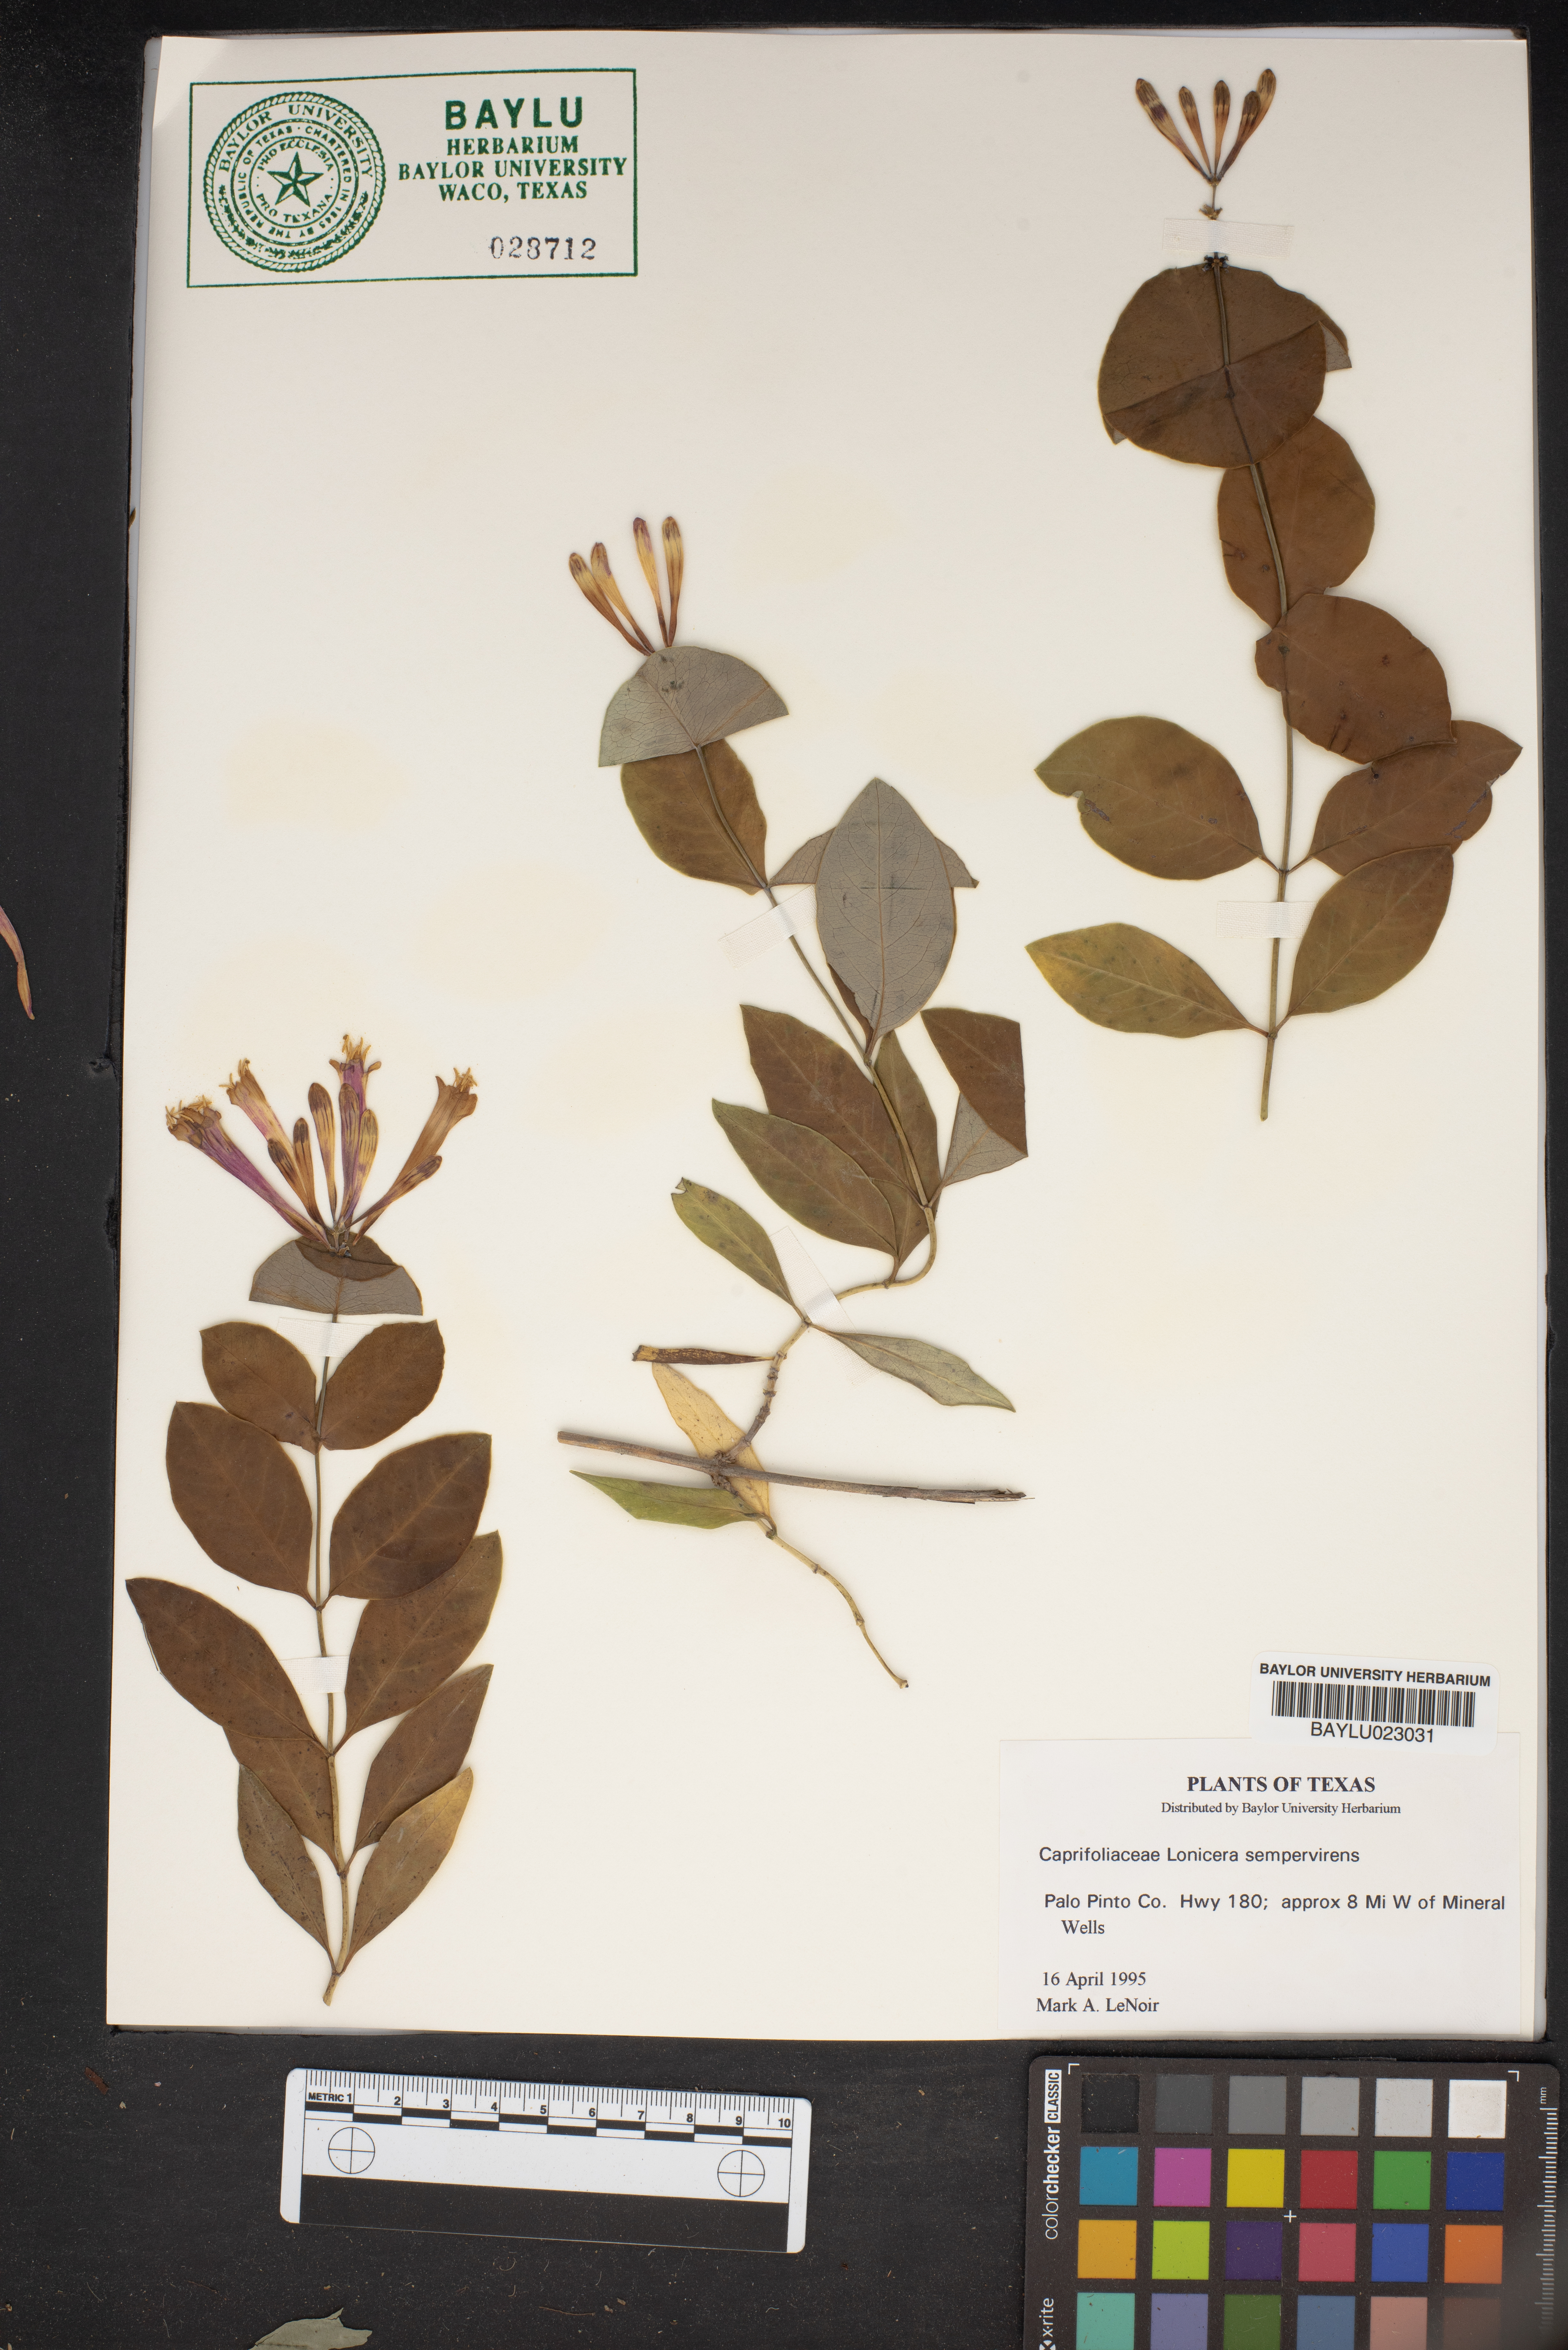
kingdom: Plantae
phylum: Tracheophyta
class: Magnoliopsida
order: Dipsacales
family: Caprifoliaceae
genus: Lonicera
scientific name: Lonicera sempervirens
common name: Coral honeysuckle
